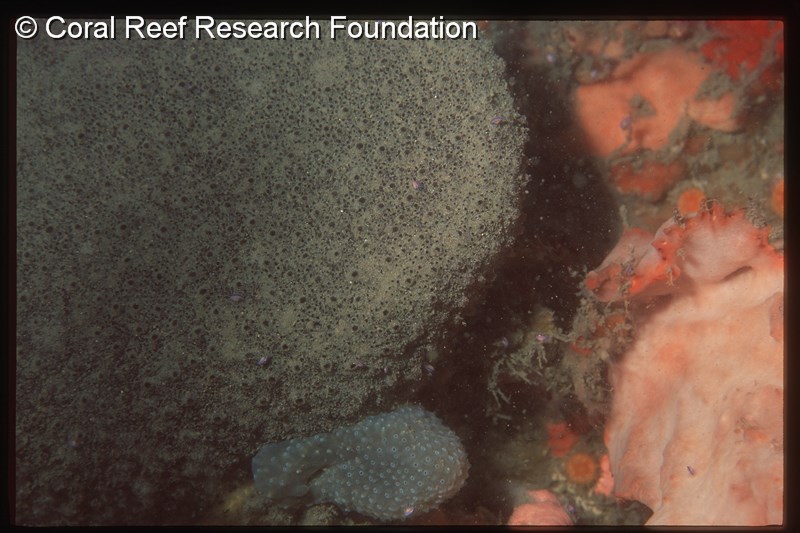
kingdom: Animalia
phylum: Chordata
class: Ascidiacea
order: Aplousobranchia
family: Polyclinidae
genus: Aplidiopsis
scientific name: Aplidiopsis
